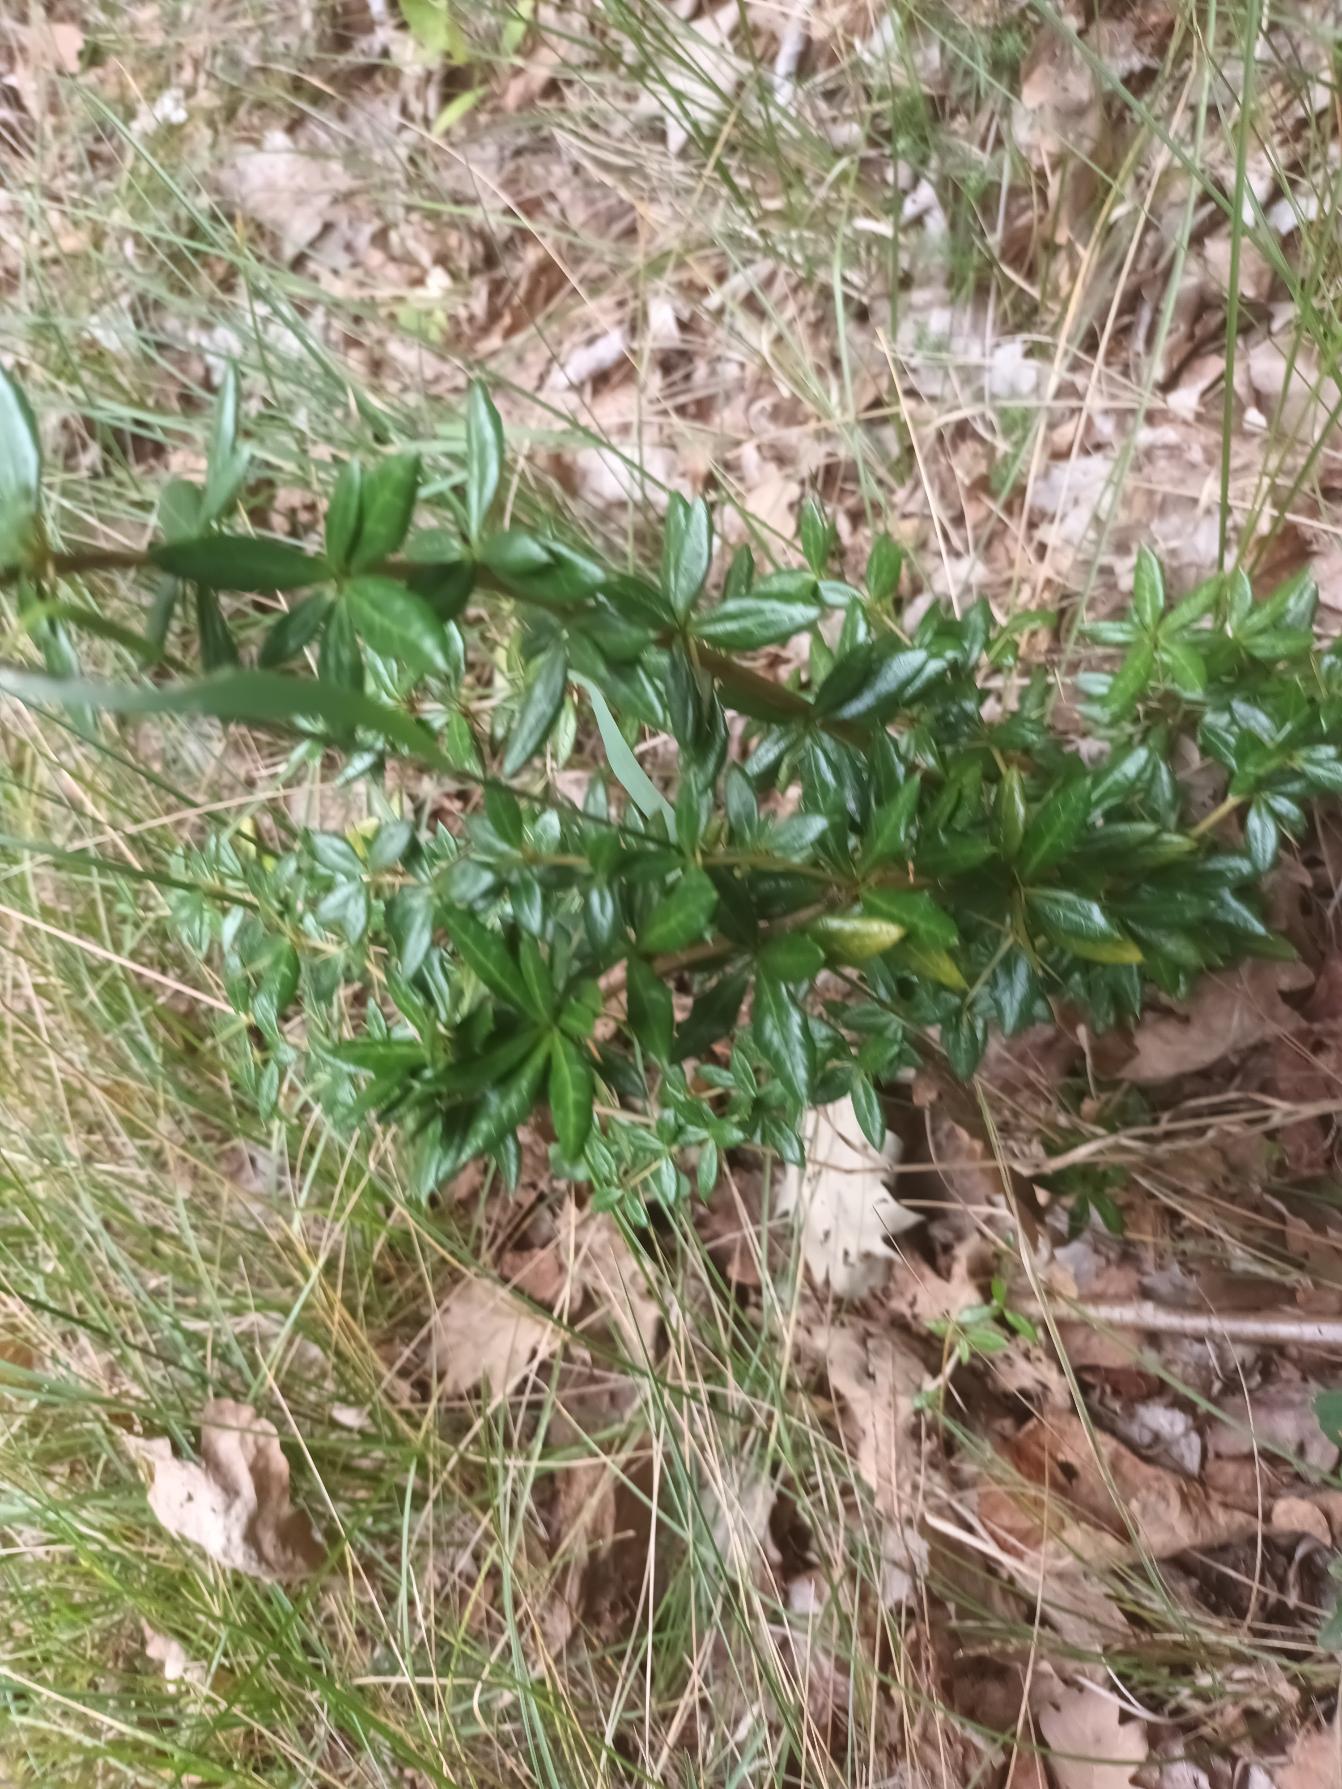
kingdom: Plantae
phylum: Tracheophyta
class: Magnoliopsida
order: Ranunculales
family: Berberidaceae
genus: Berberis
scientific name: Berberis candidula
